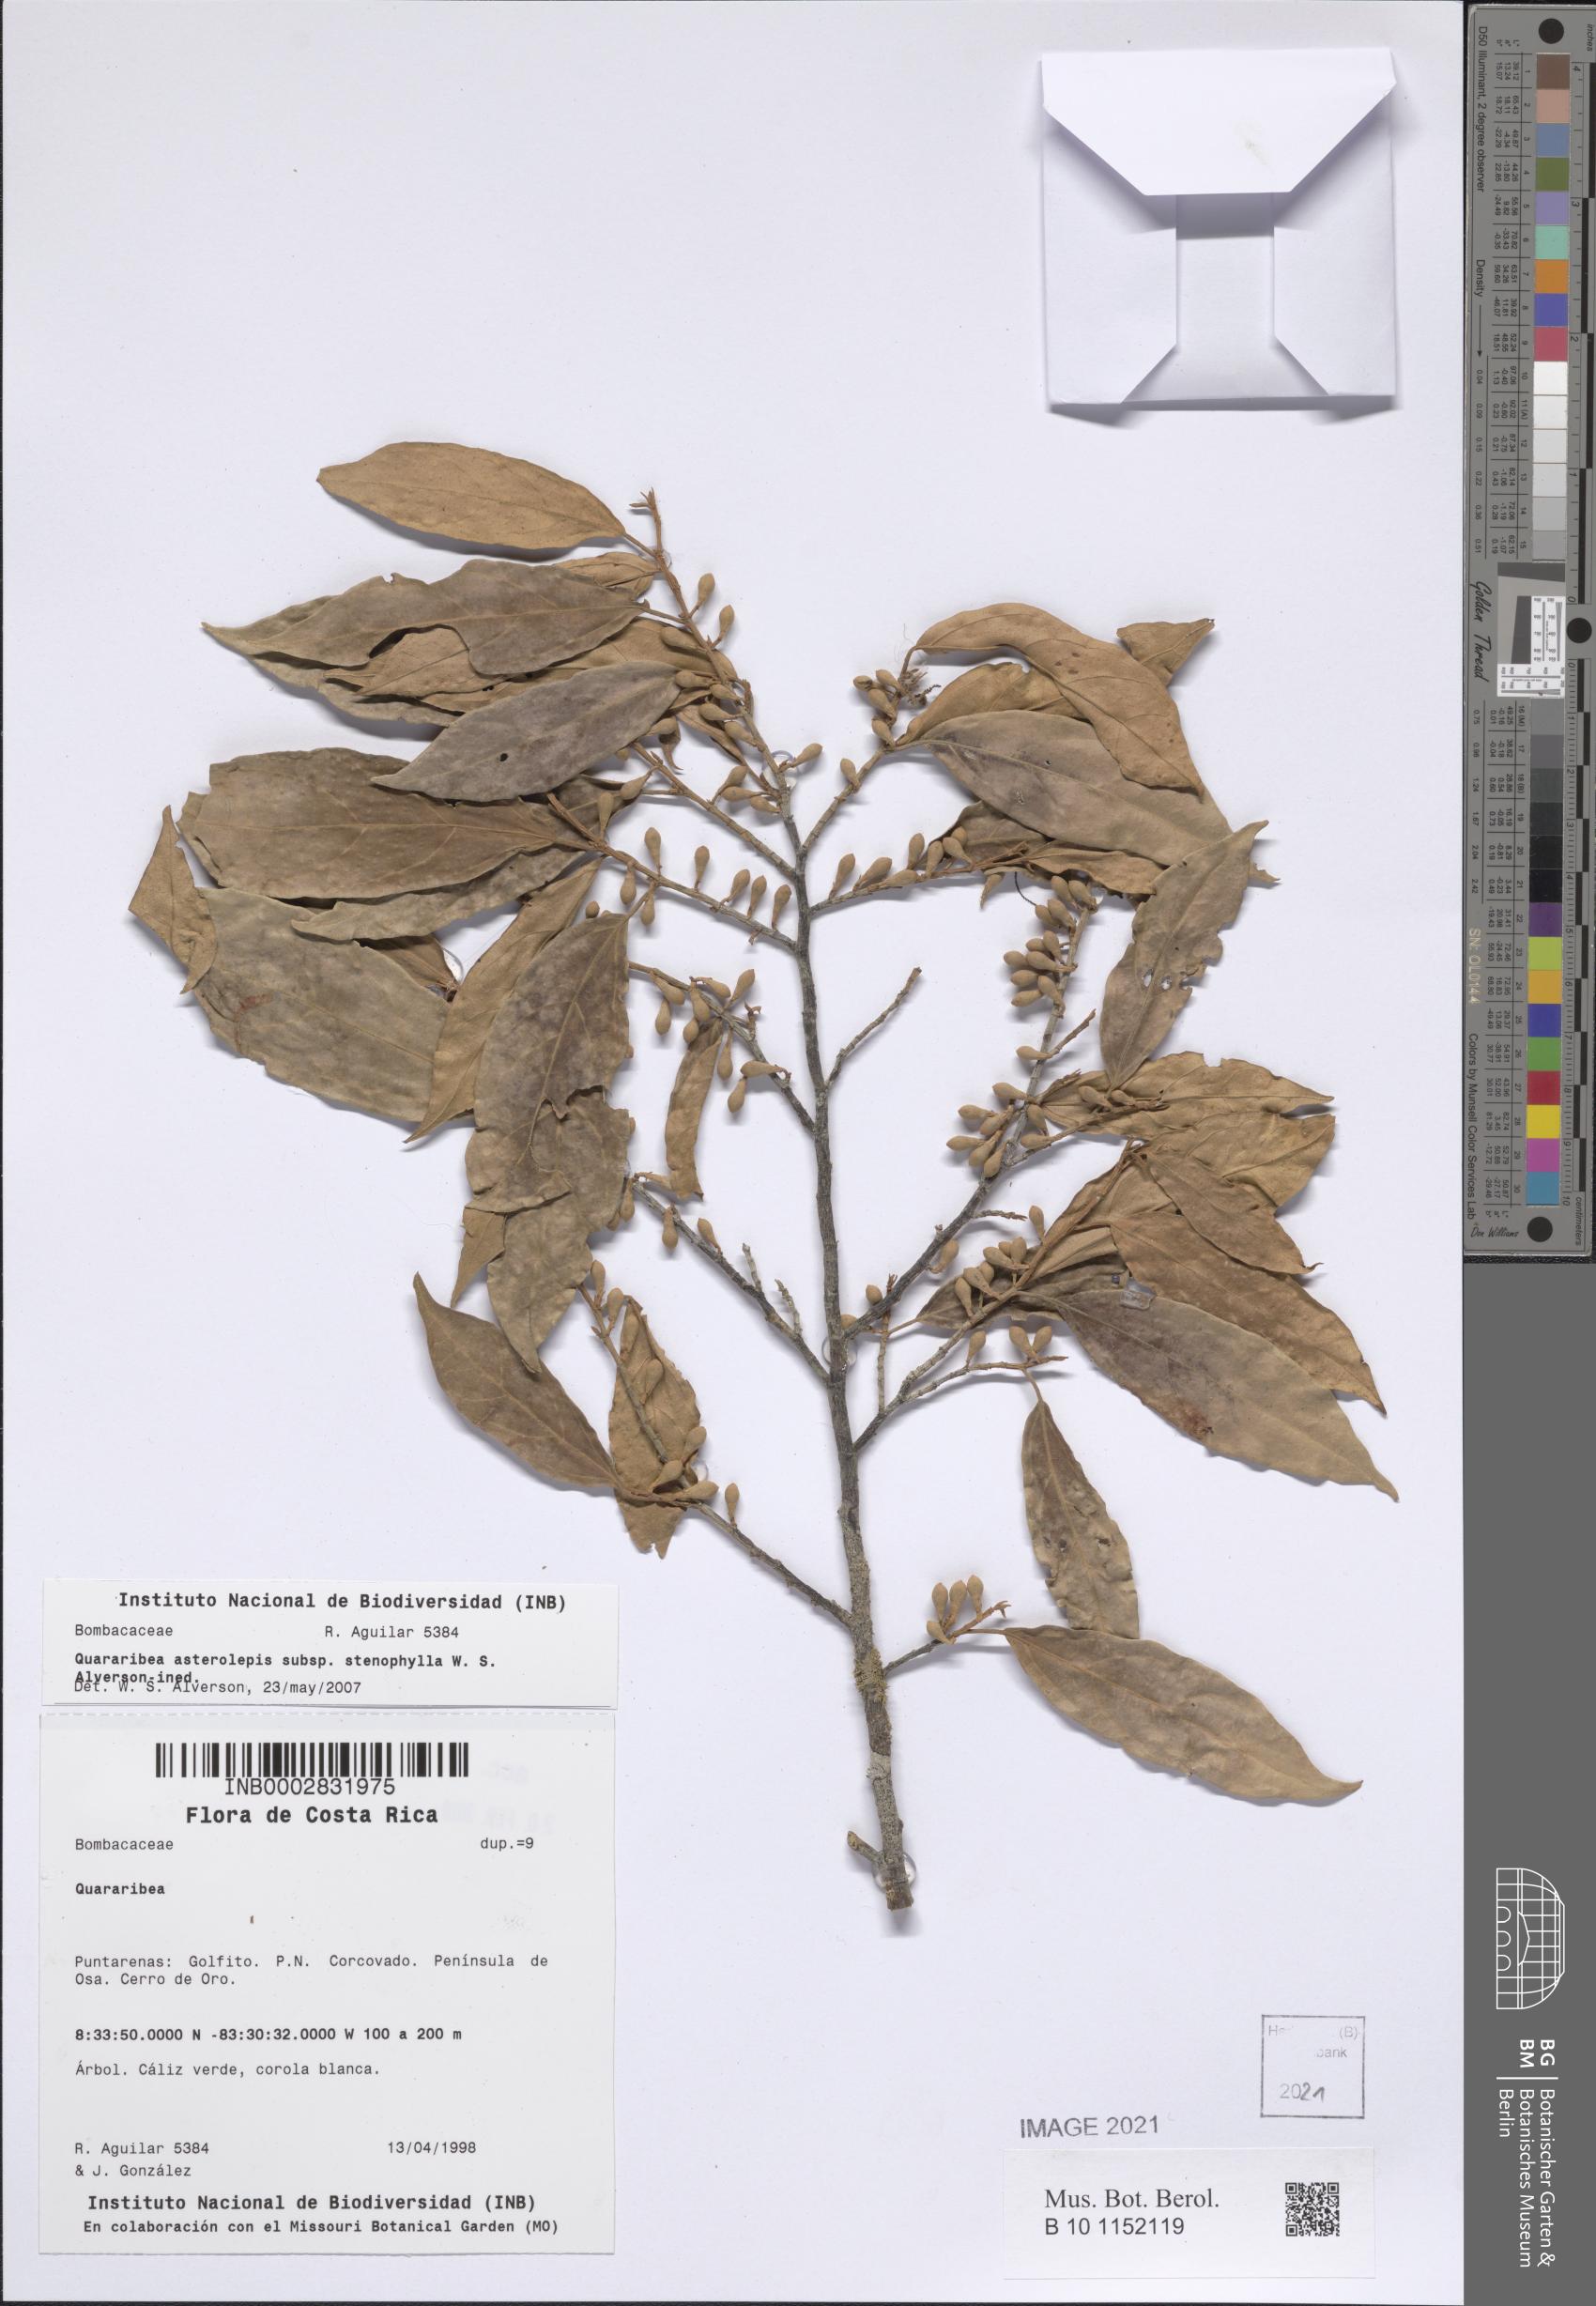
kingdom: Plantae
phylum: Tracheophyta
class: Magnoliopsida
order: Malvales
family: Malvaceae
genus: Quararibea
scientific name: Quararibea asterolepis
